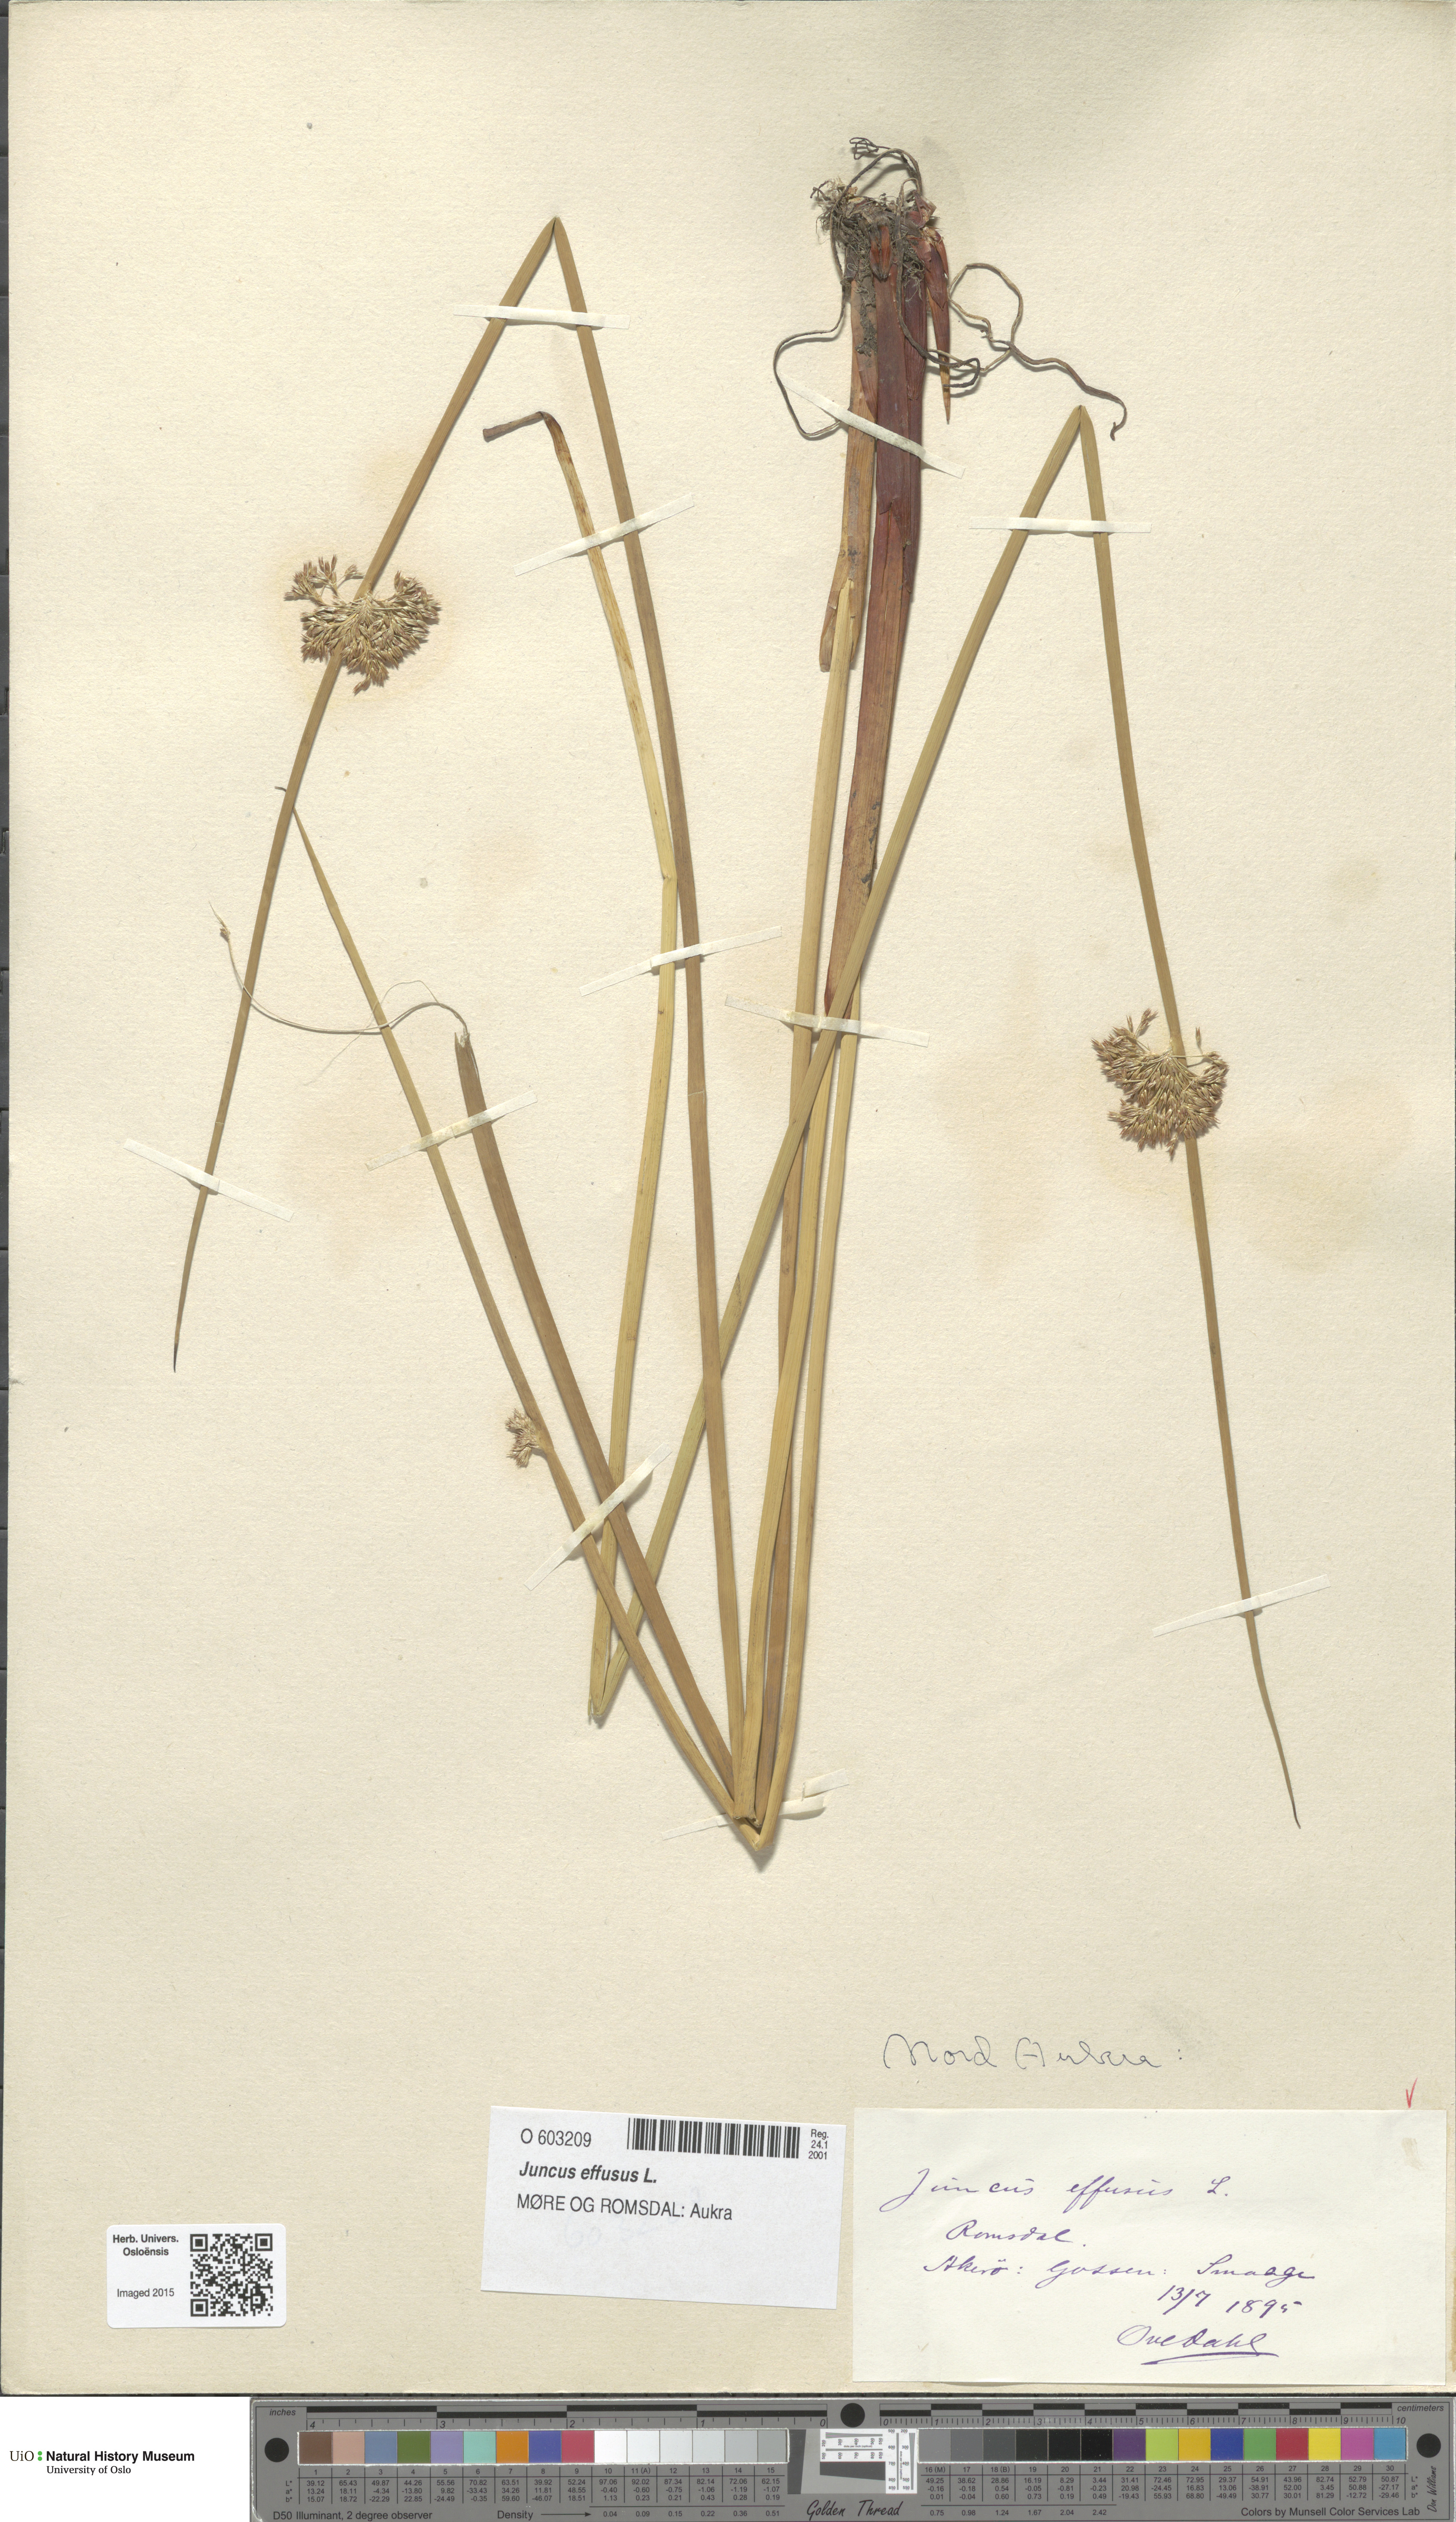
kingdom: Plantae
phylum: Tracheophyta
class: Liliopsida
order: Poales
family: Juncaceae
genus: Juncus
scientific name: Juncus effusus
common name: Soft rush
